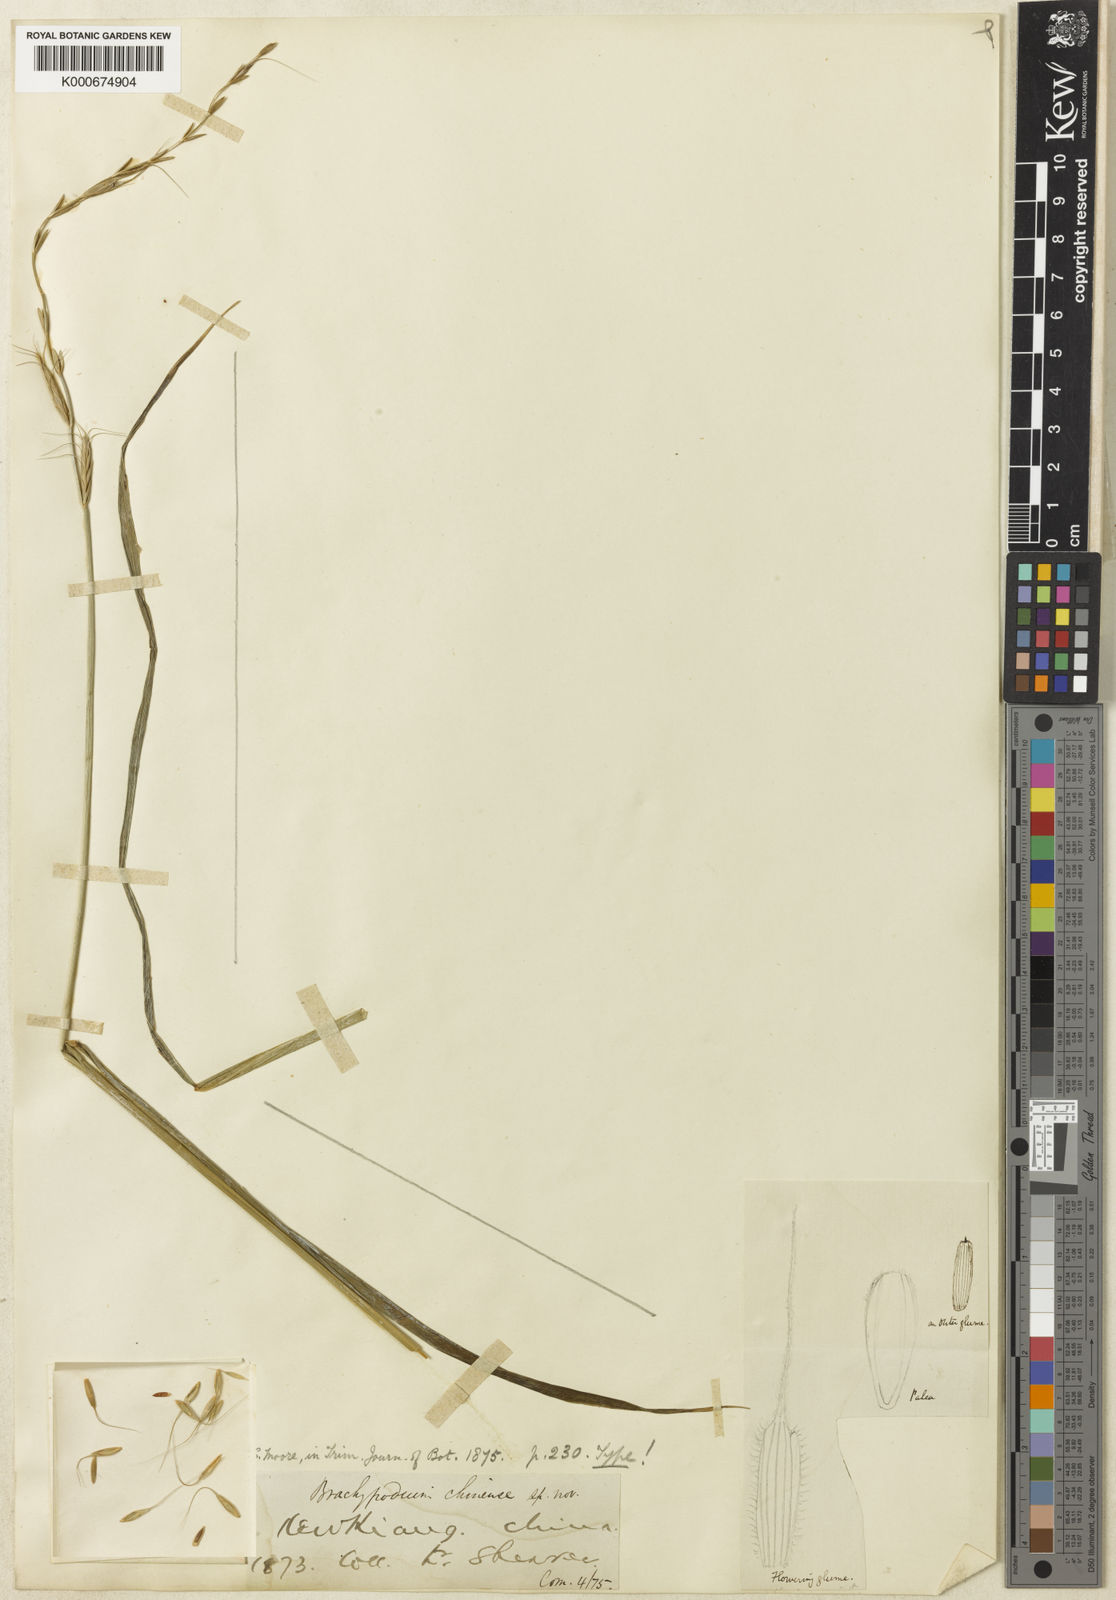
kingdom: Plantae
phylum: Tracheophyta
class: Liliopsida
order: Poales
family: Poaceae
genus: Leymus
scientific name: Leymus chinensis
